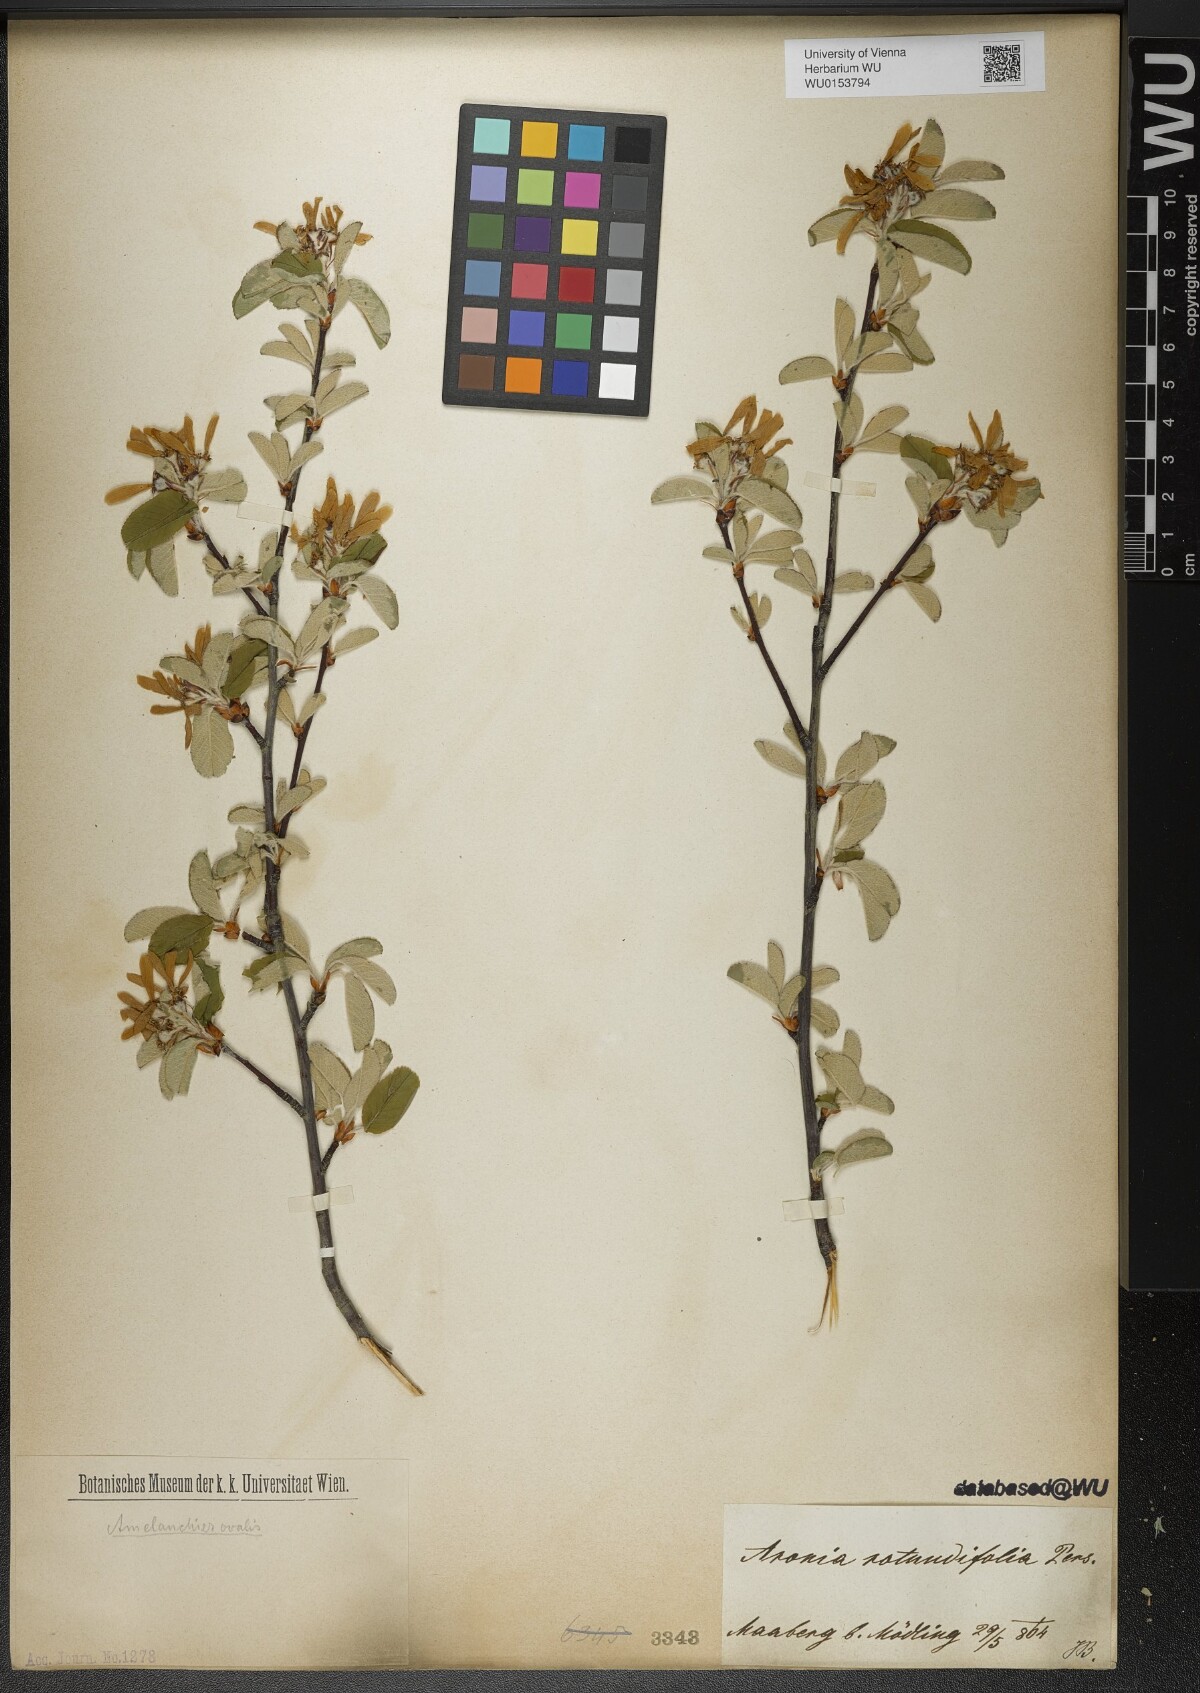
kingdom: Plantae
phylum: Tracheophyta
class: Magnoliopsida
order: Rosales
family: Rosaceae
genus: Amelanchier
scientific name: Amelanchier ovalis
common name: Serviceberry
